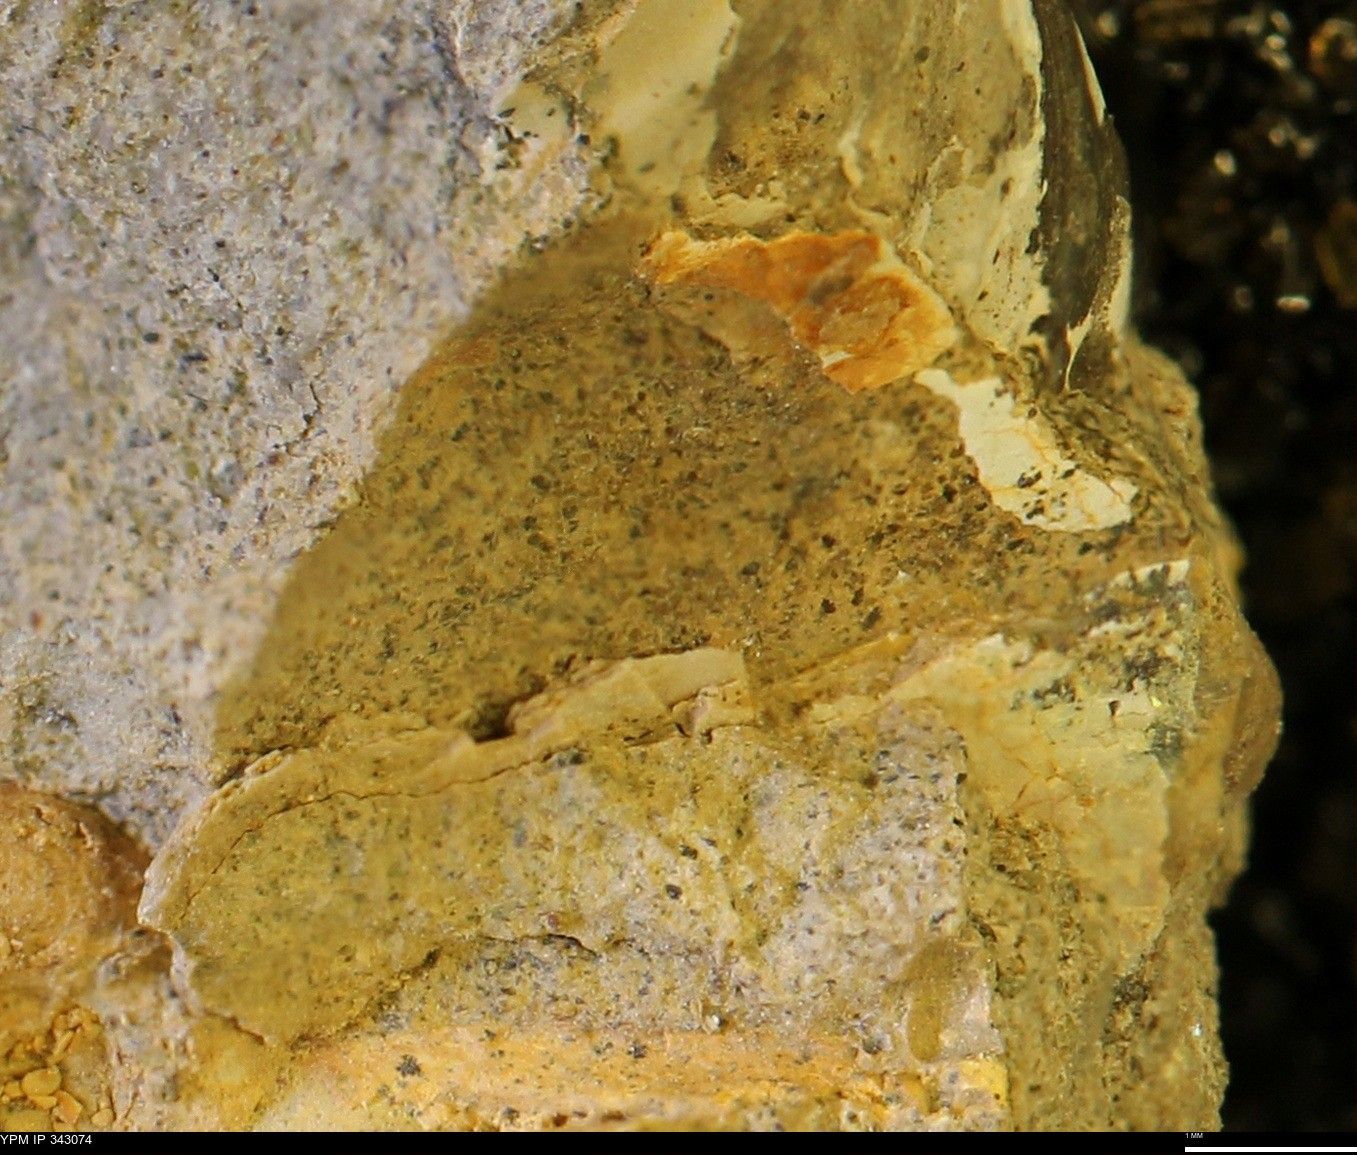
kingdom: Animalia
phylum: Mollusca
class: Cephalopoda
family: Scaphitidae
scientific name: Scaphitidae
